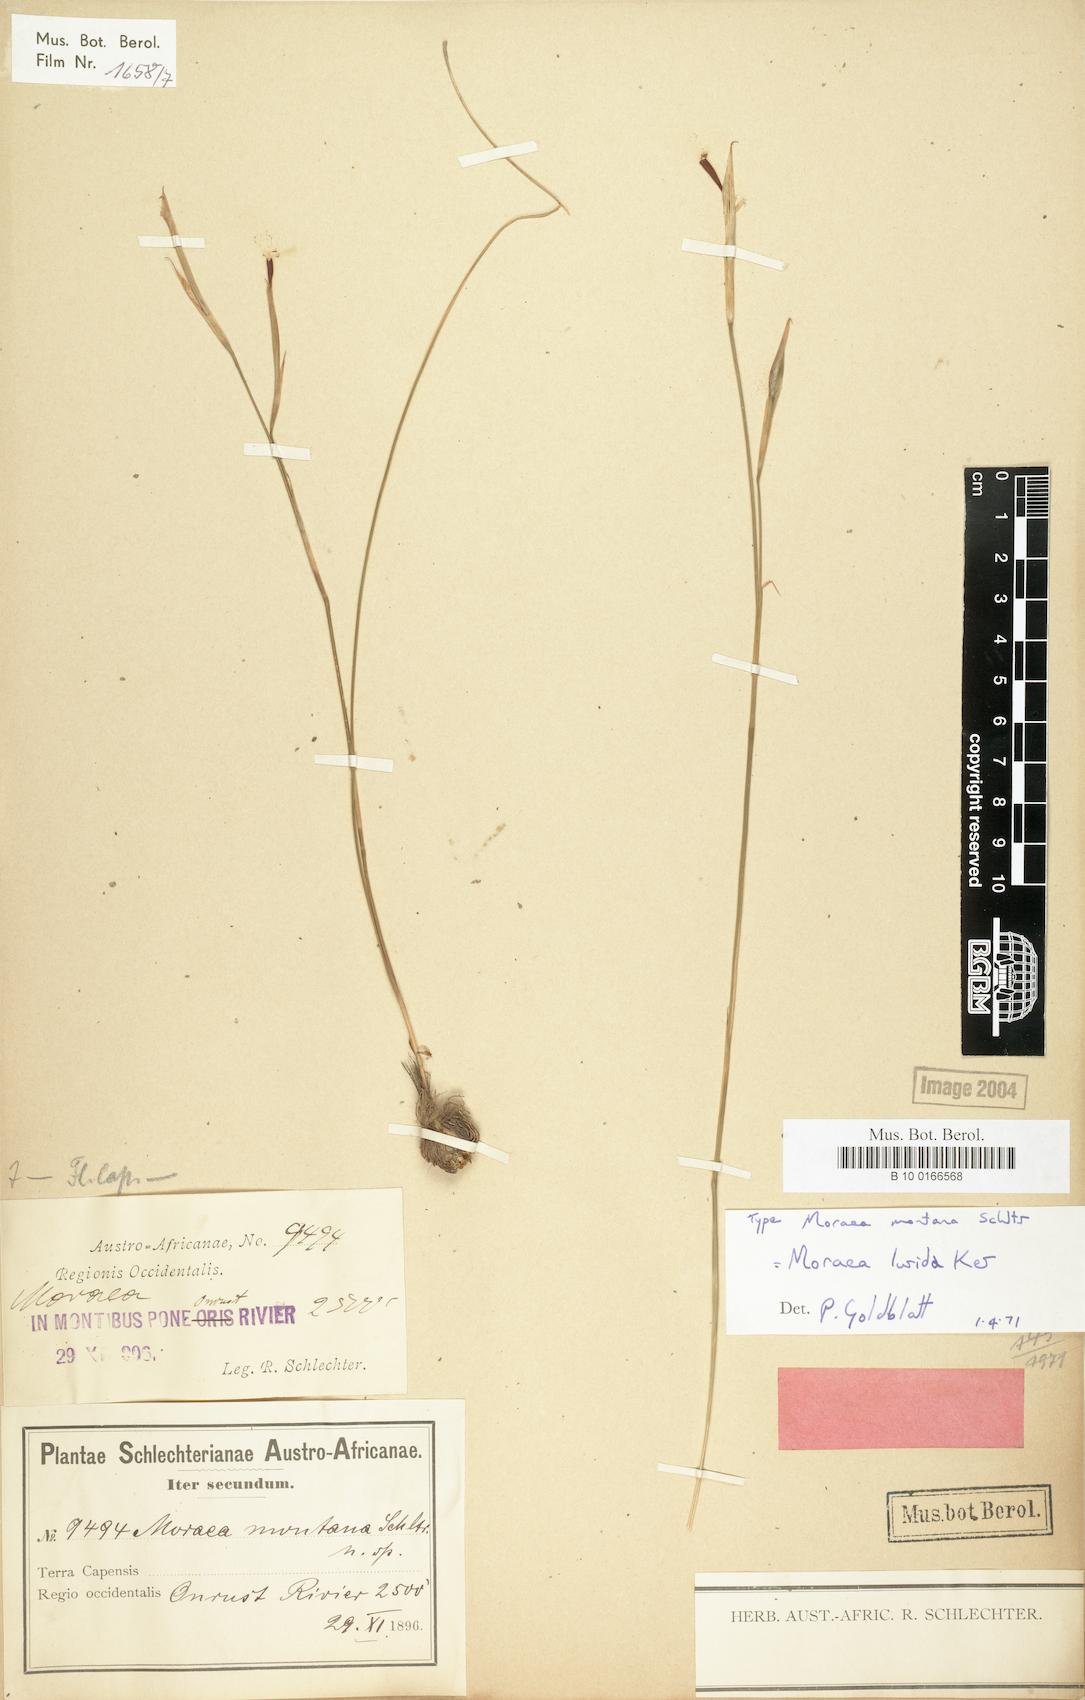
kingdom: Plantae
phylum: Tracheophyta
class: Liliopsida
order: Asparagales
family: Iridaceae
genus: Moraea
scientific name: Moraea lurida
